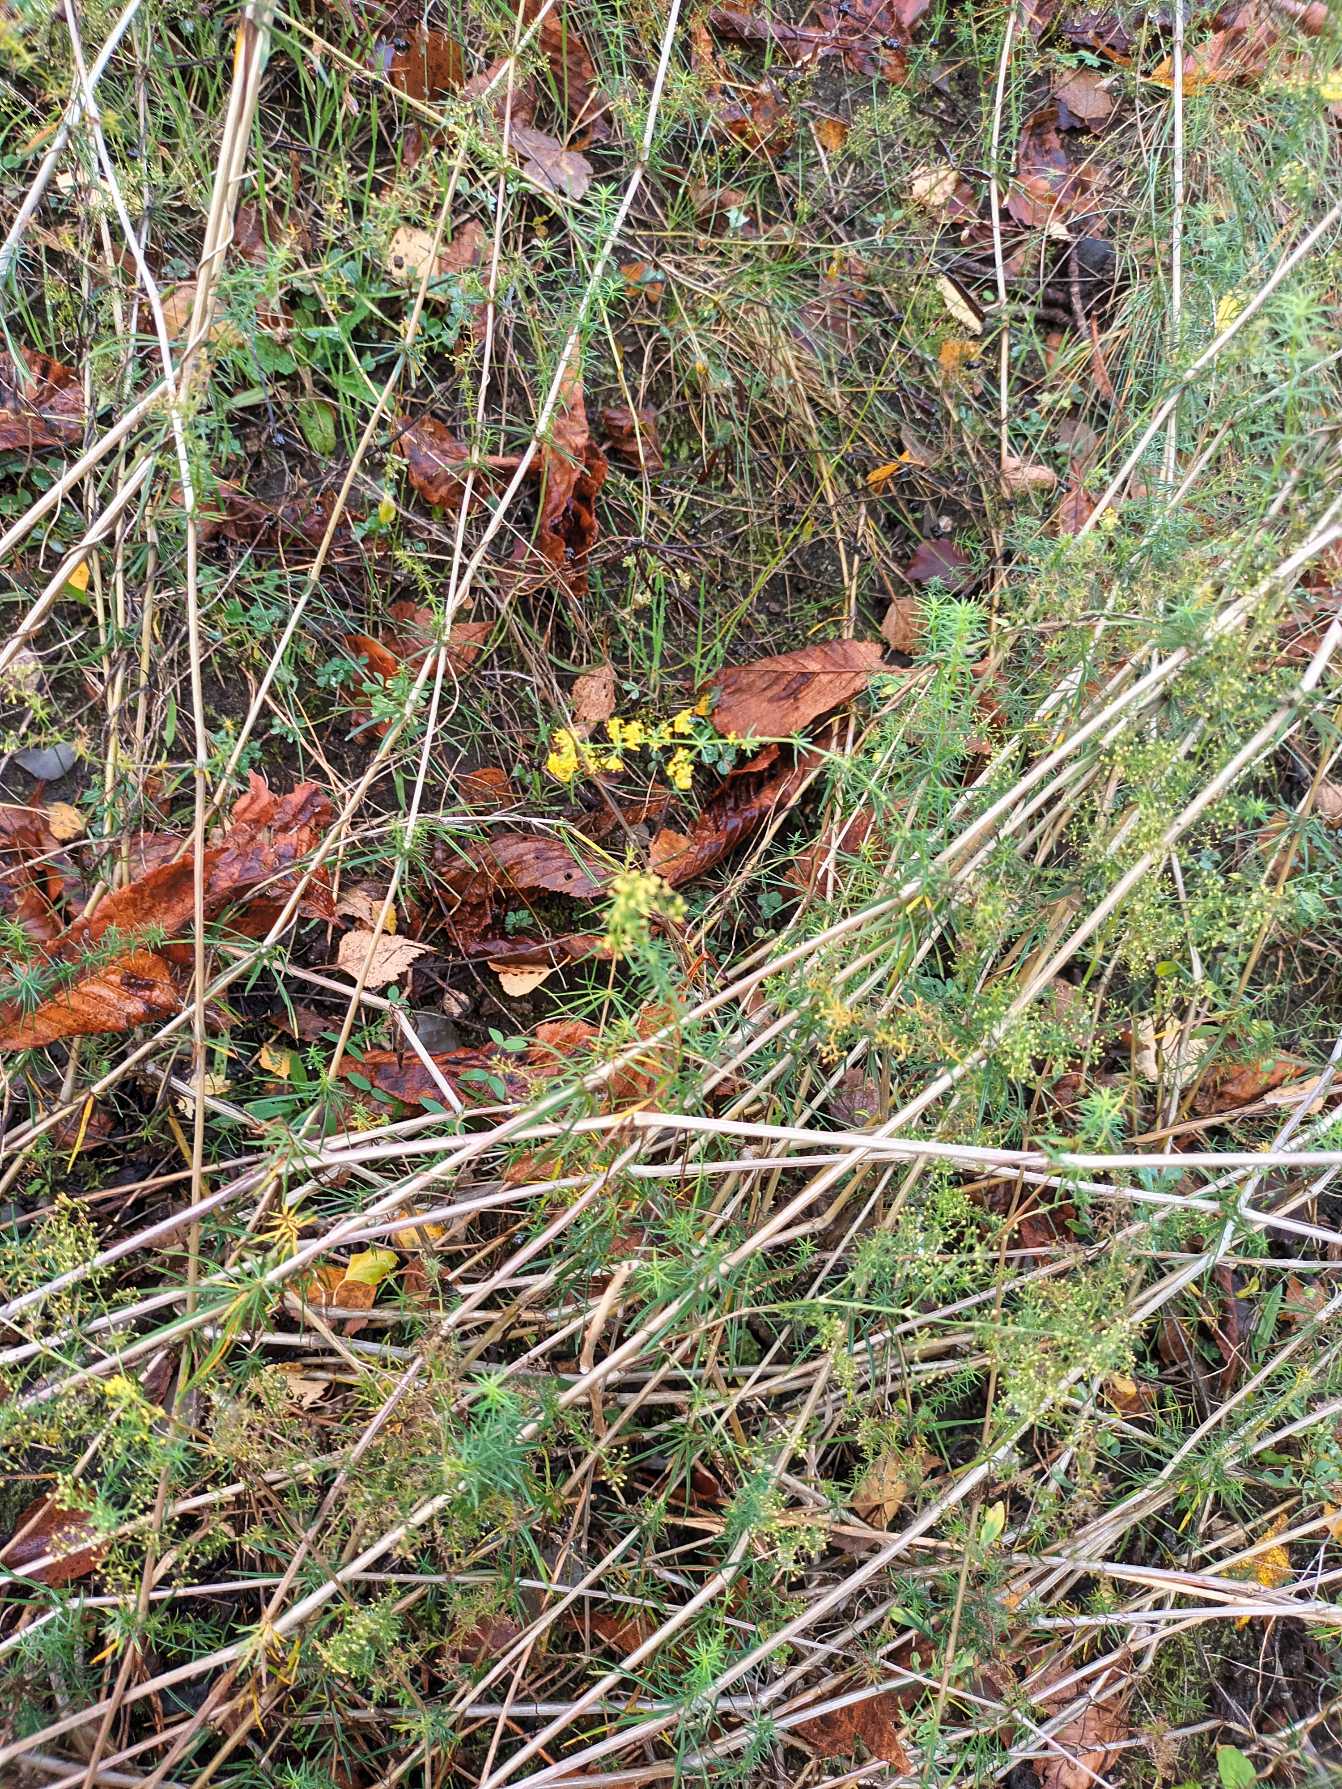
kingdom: Plantae
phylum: Tracheophyta
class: Magnoliopsida
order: Gentianales
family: Rubiaceae
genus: Galium
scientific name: Galium verum
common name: Gul snerre
